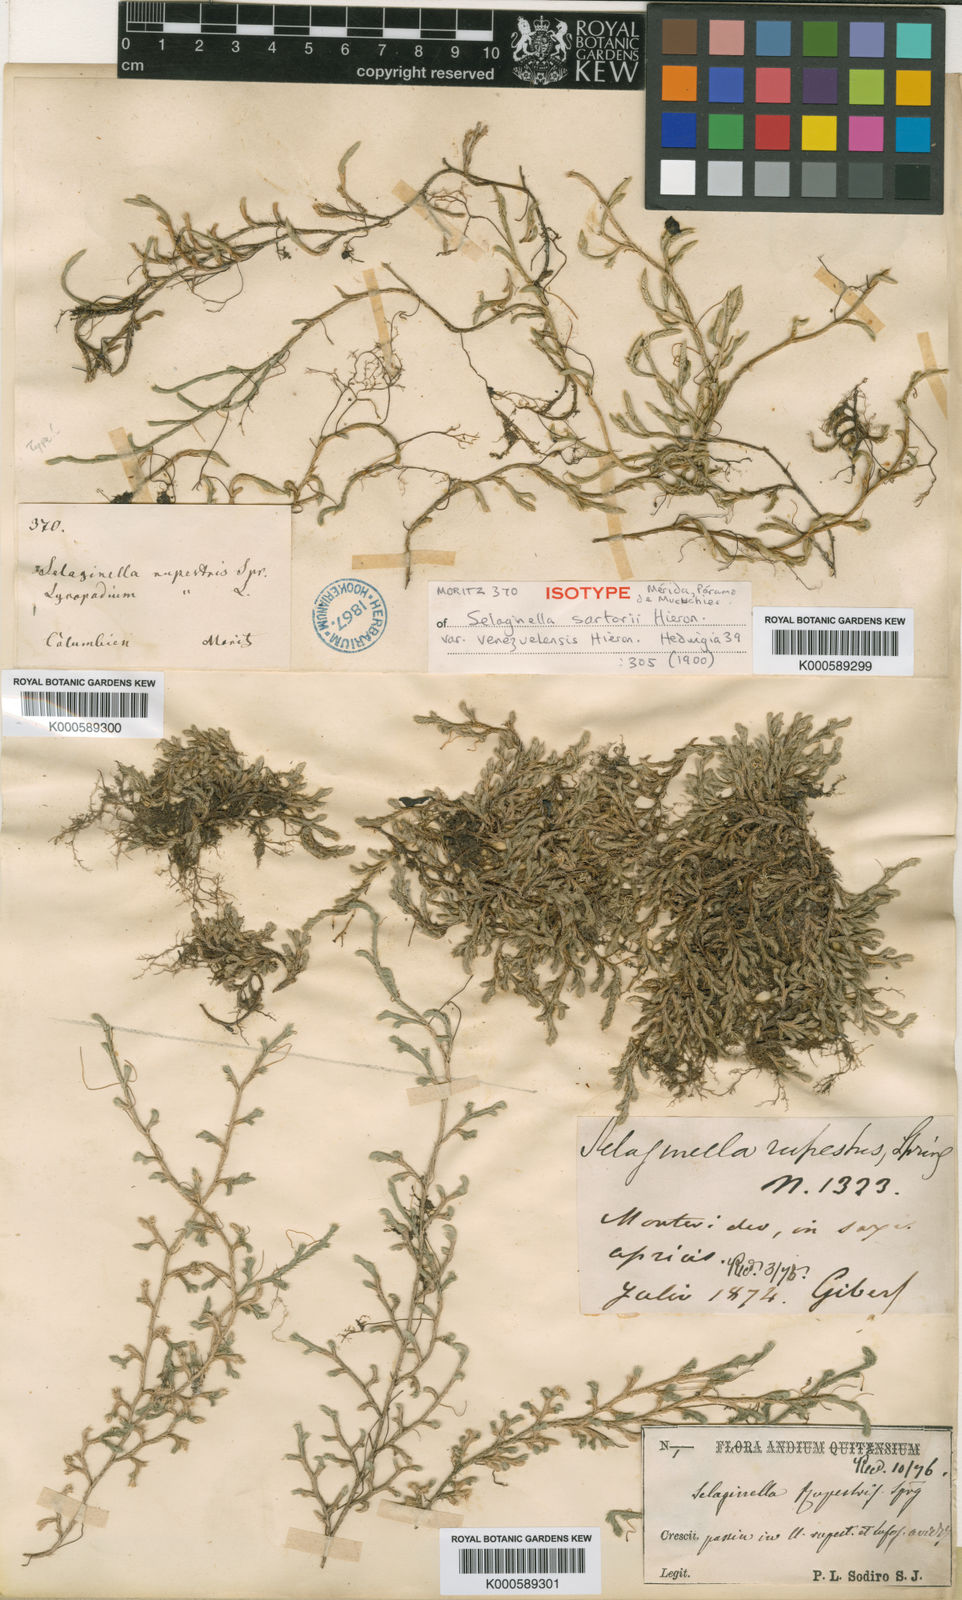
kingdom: Plantae
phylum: Tracheophyta
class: Lycopodiopsida
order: Selaginellales
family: Selaginellaceae
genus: Selaginella
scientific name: Selaginella sartorii
